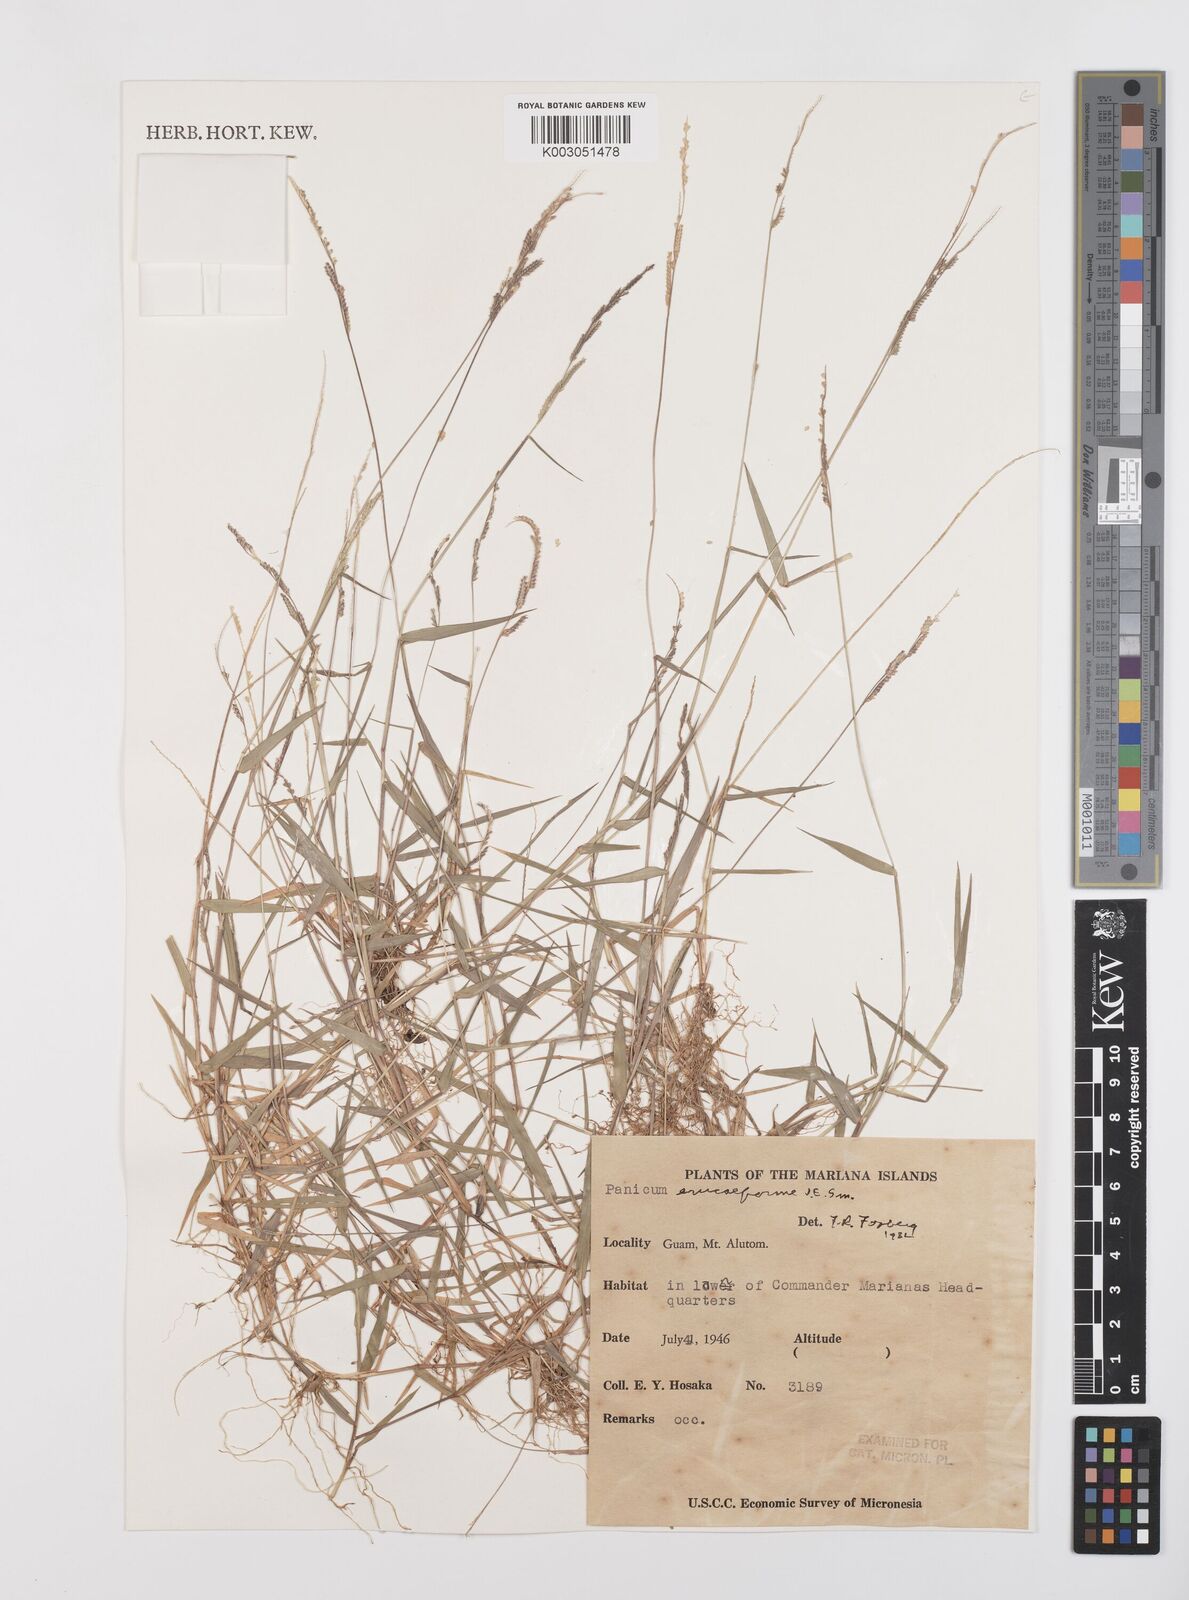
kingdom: Plantae
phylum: Tracheophyta
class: Liliopsida
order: Poales
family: Poaceae
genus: Moorochloa
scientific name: Moorochloa eruciformis
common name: Sweet signalgrass
